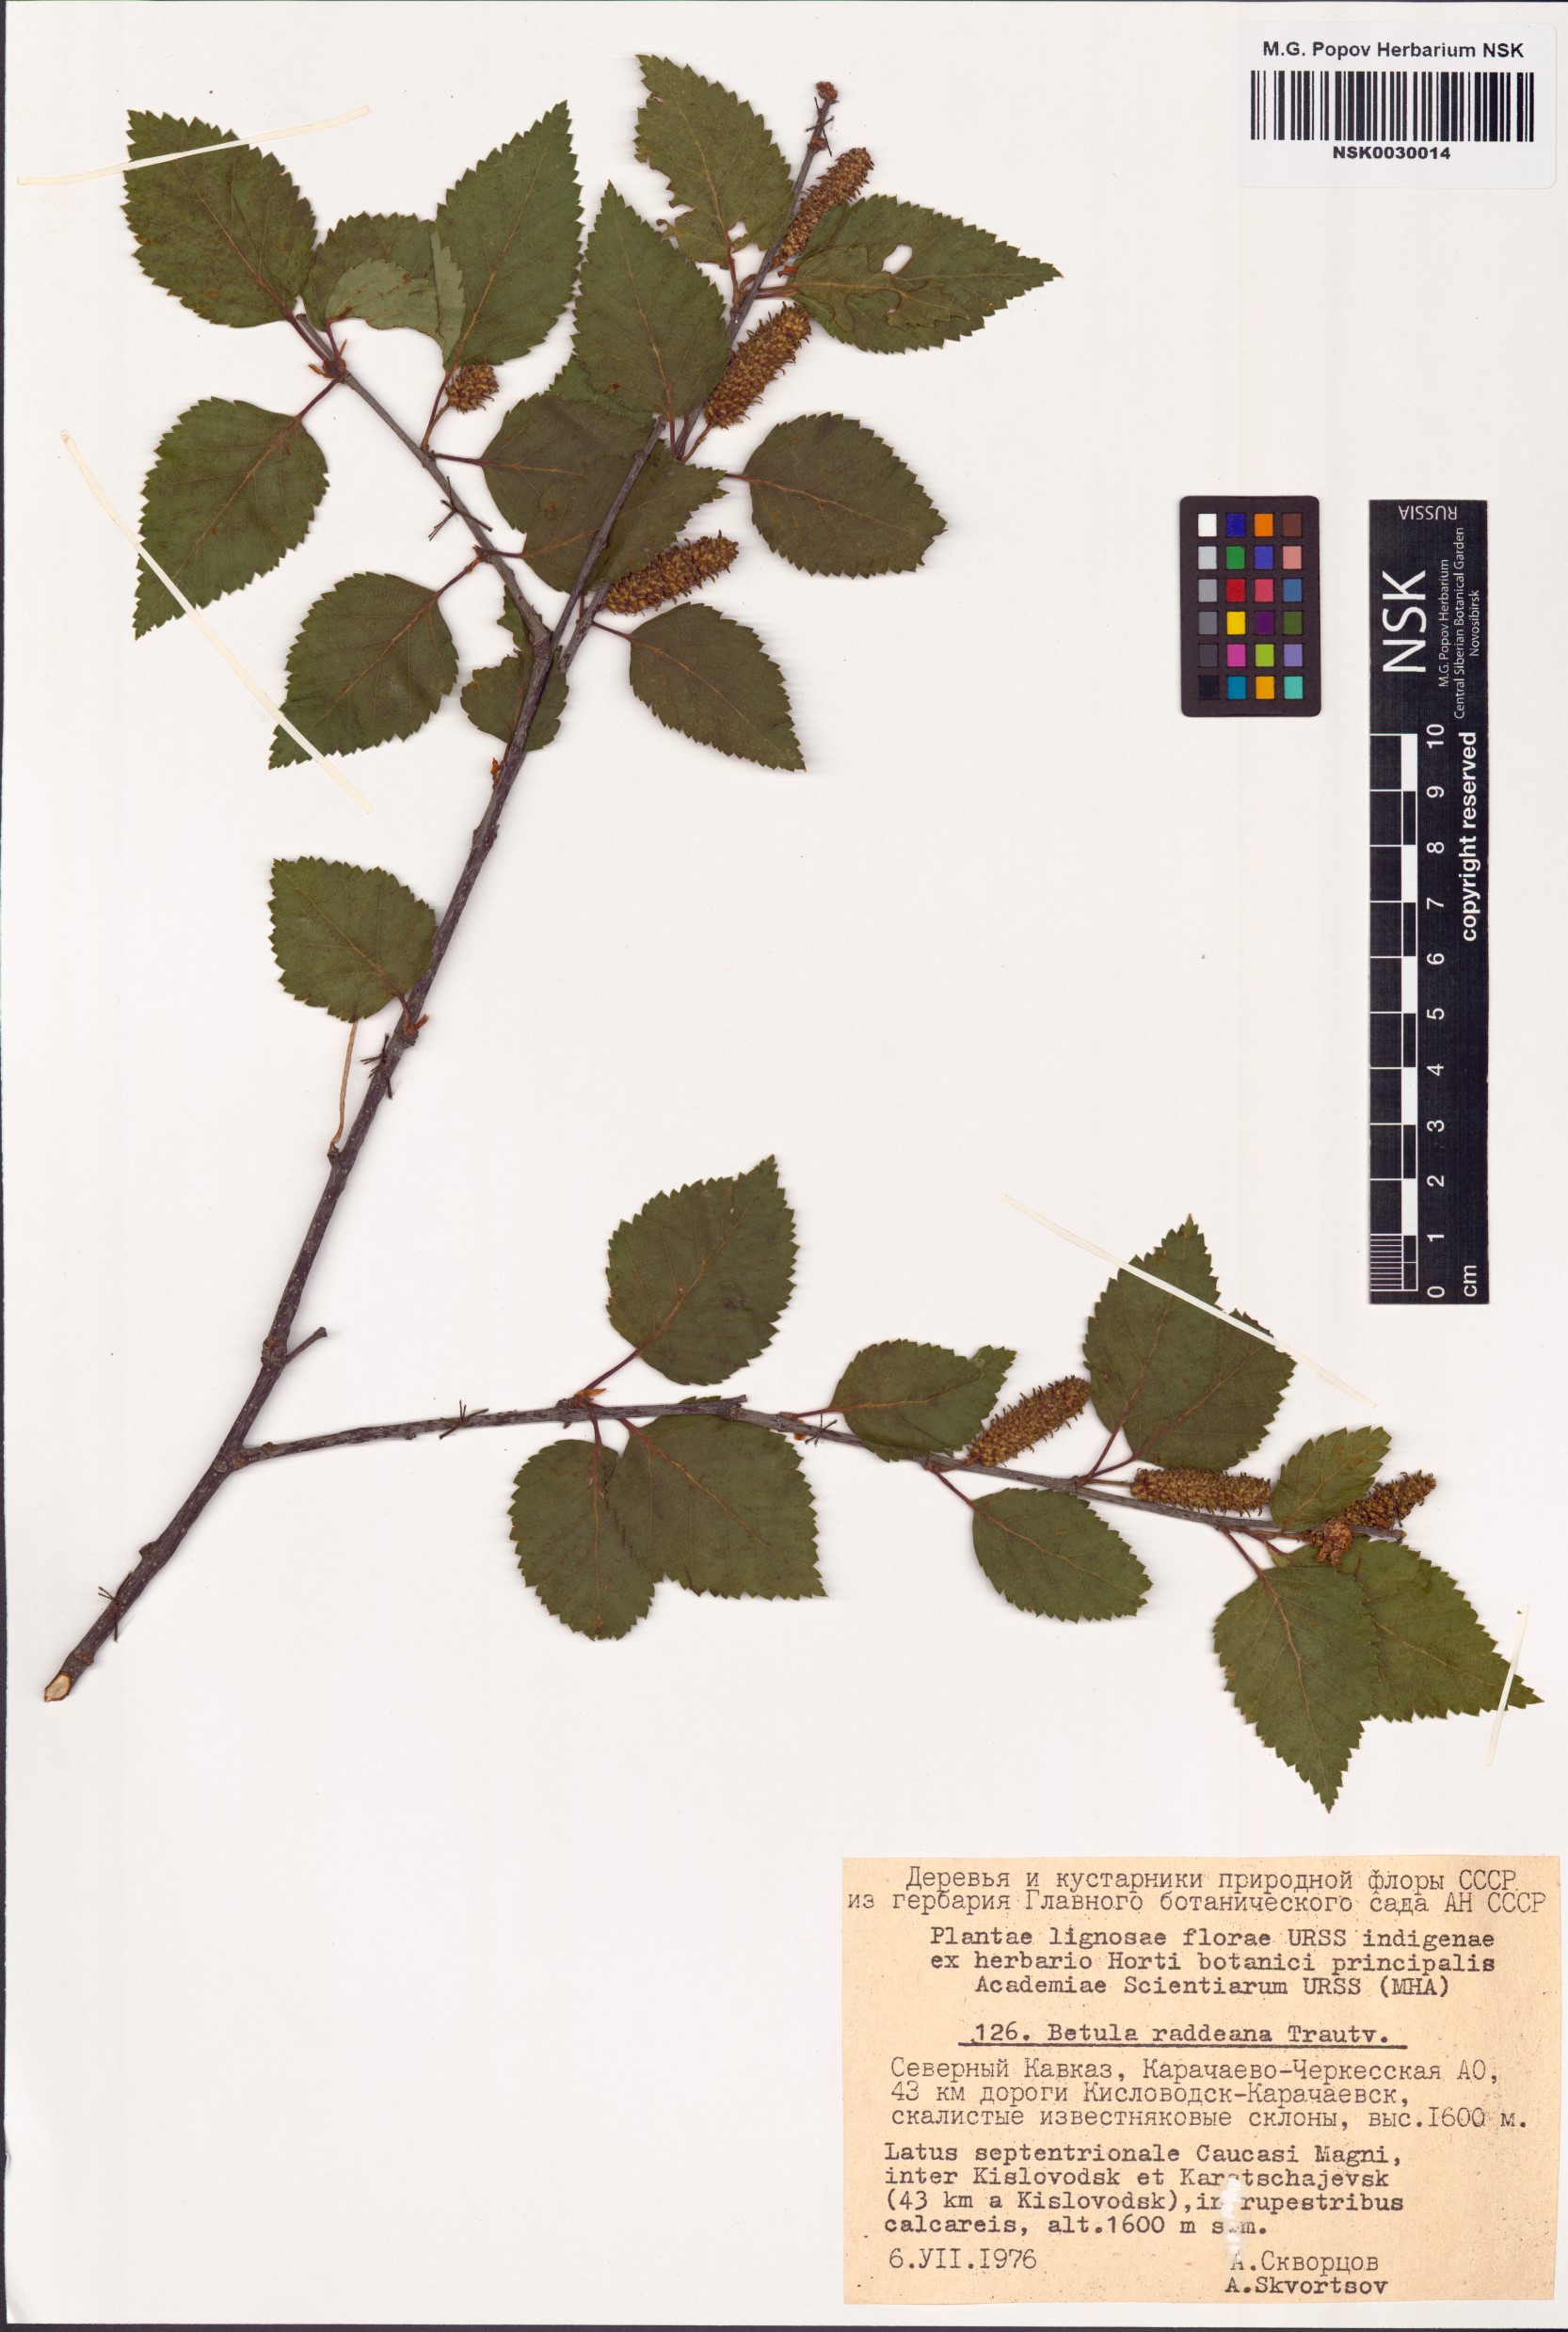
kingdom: Plantae
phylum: Tracheophyta
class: Magnoliopsida
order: Fagales
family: Betulaceae
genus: Betula
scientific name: Betula raddeana
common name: Radde's birch
